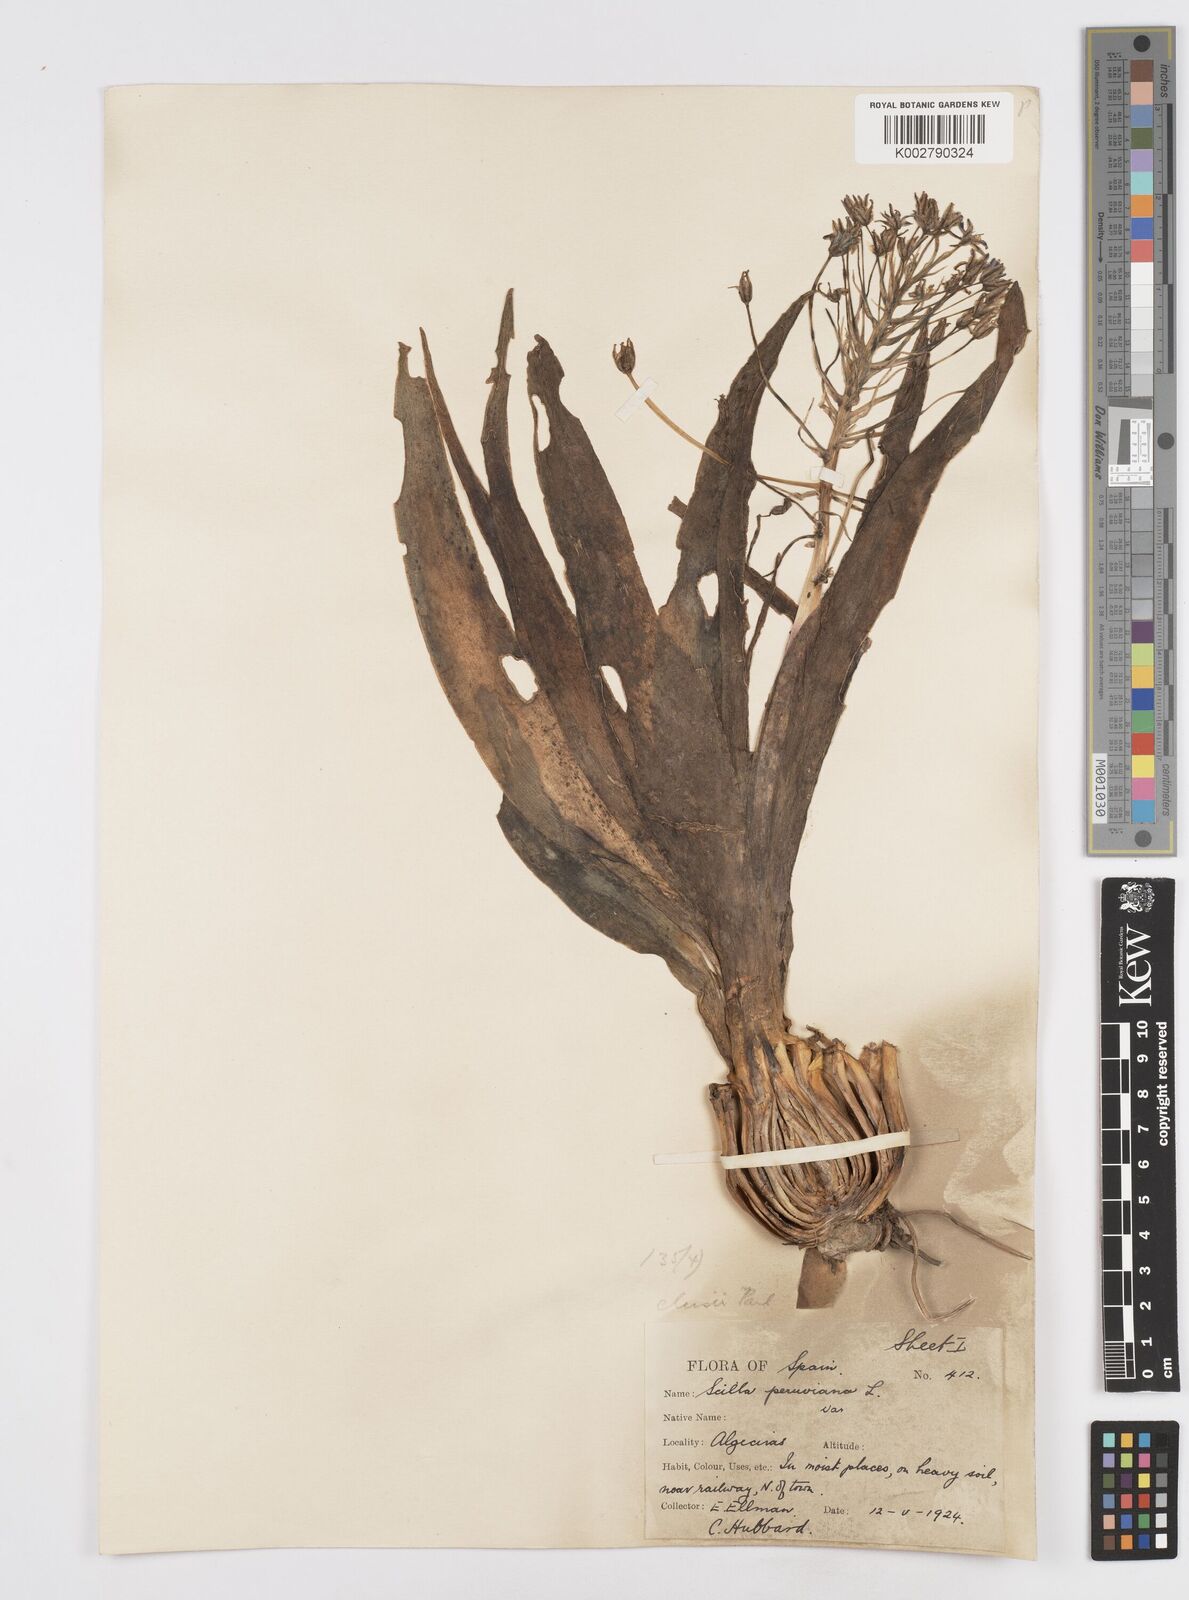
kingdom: Plantae
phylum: Tracheophyta
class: Liliopsida
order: Asparagales
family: Asparagaceae
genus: Scilla
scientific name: Scilla peruviana
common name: Portuguese squill
